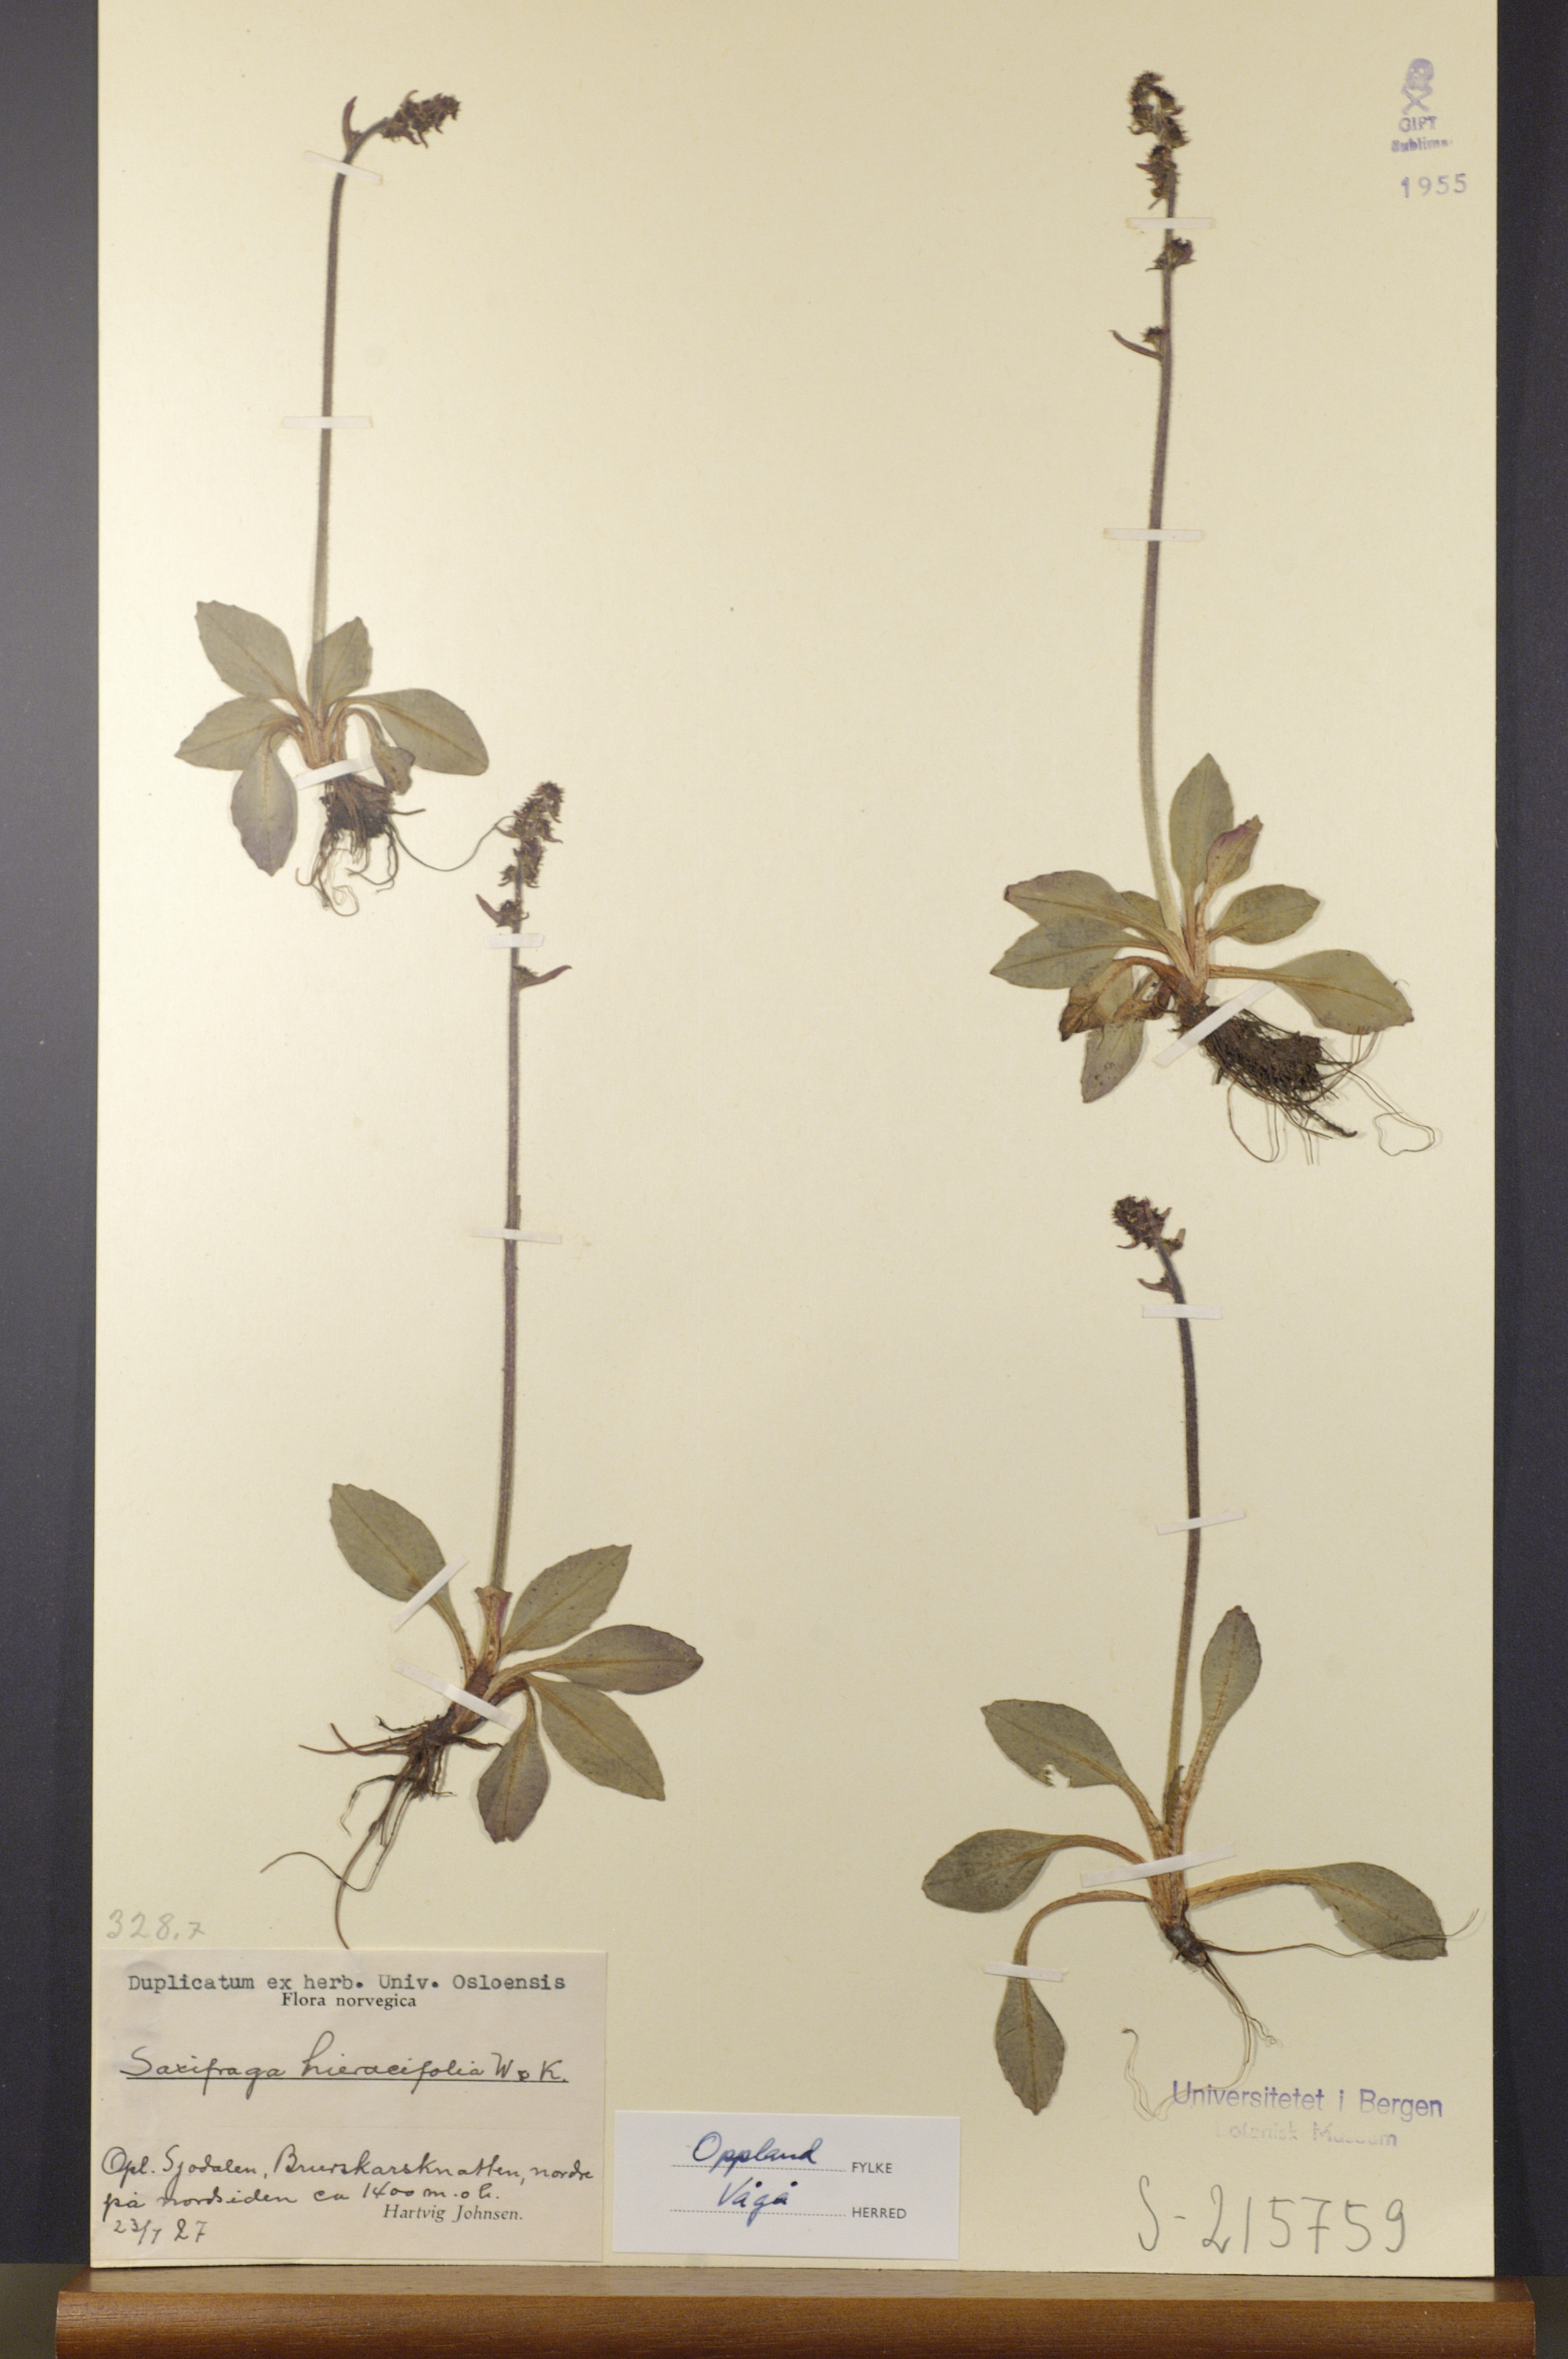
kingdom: Plantae
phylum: Tracheophyta
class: Magnoliopsida
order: Saxifragales
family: Saxifragaceae
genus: Micranthes
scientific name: Micranthes hieraciifolia
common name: Hawkweed-leaved saxifrage
